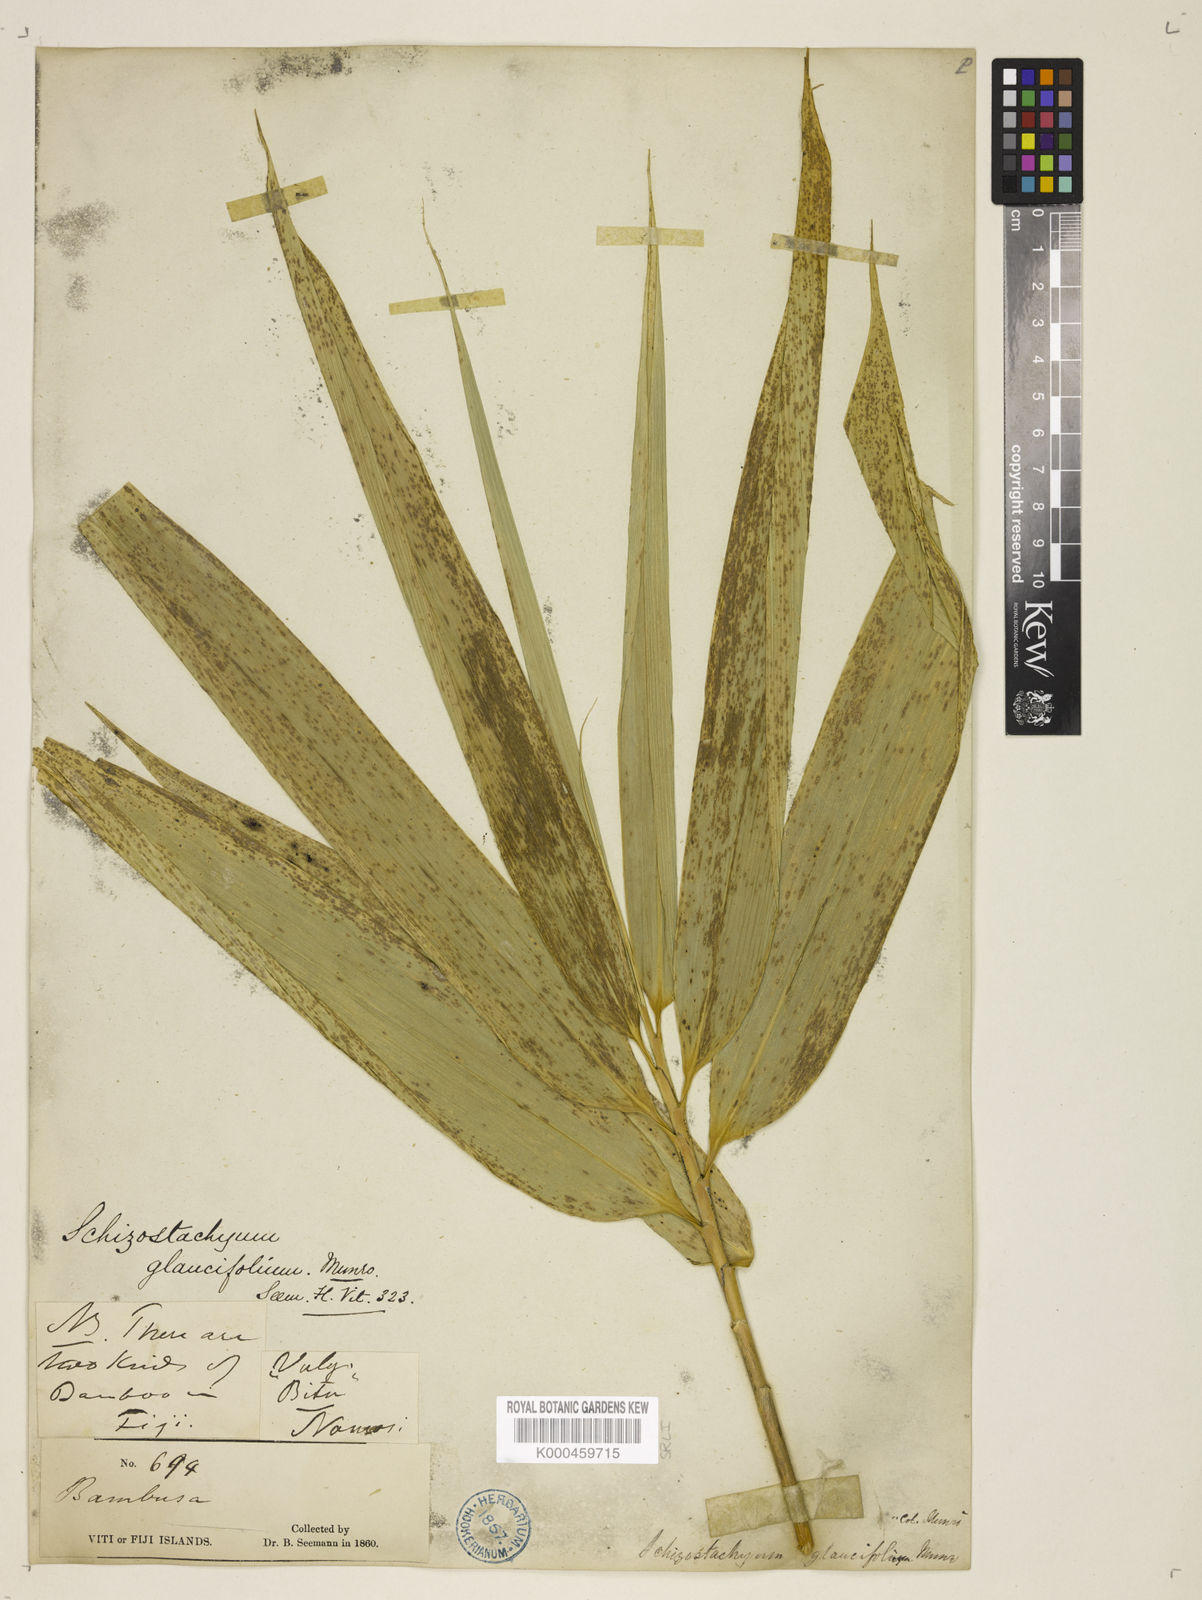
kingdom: Plantae
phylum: Tracheophyta
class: Liliopsida
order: Poales
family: Poaceae
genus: Schizostachyum
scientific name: Schizostachyum glaucifolium
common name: Polynesian 'ohe
